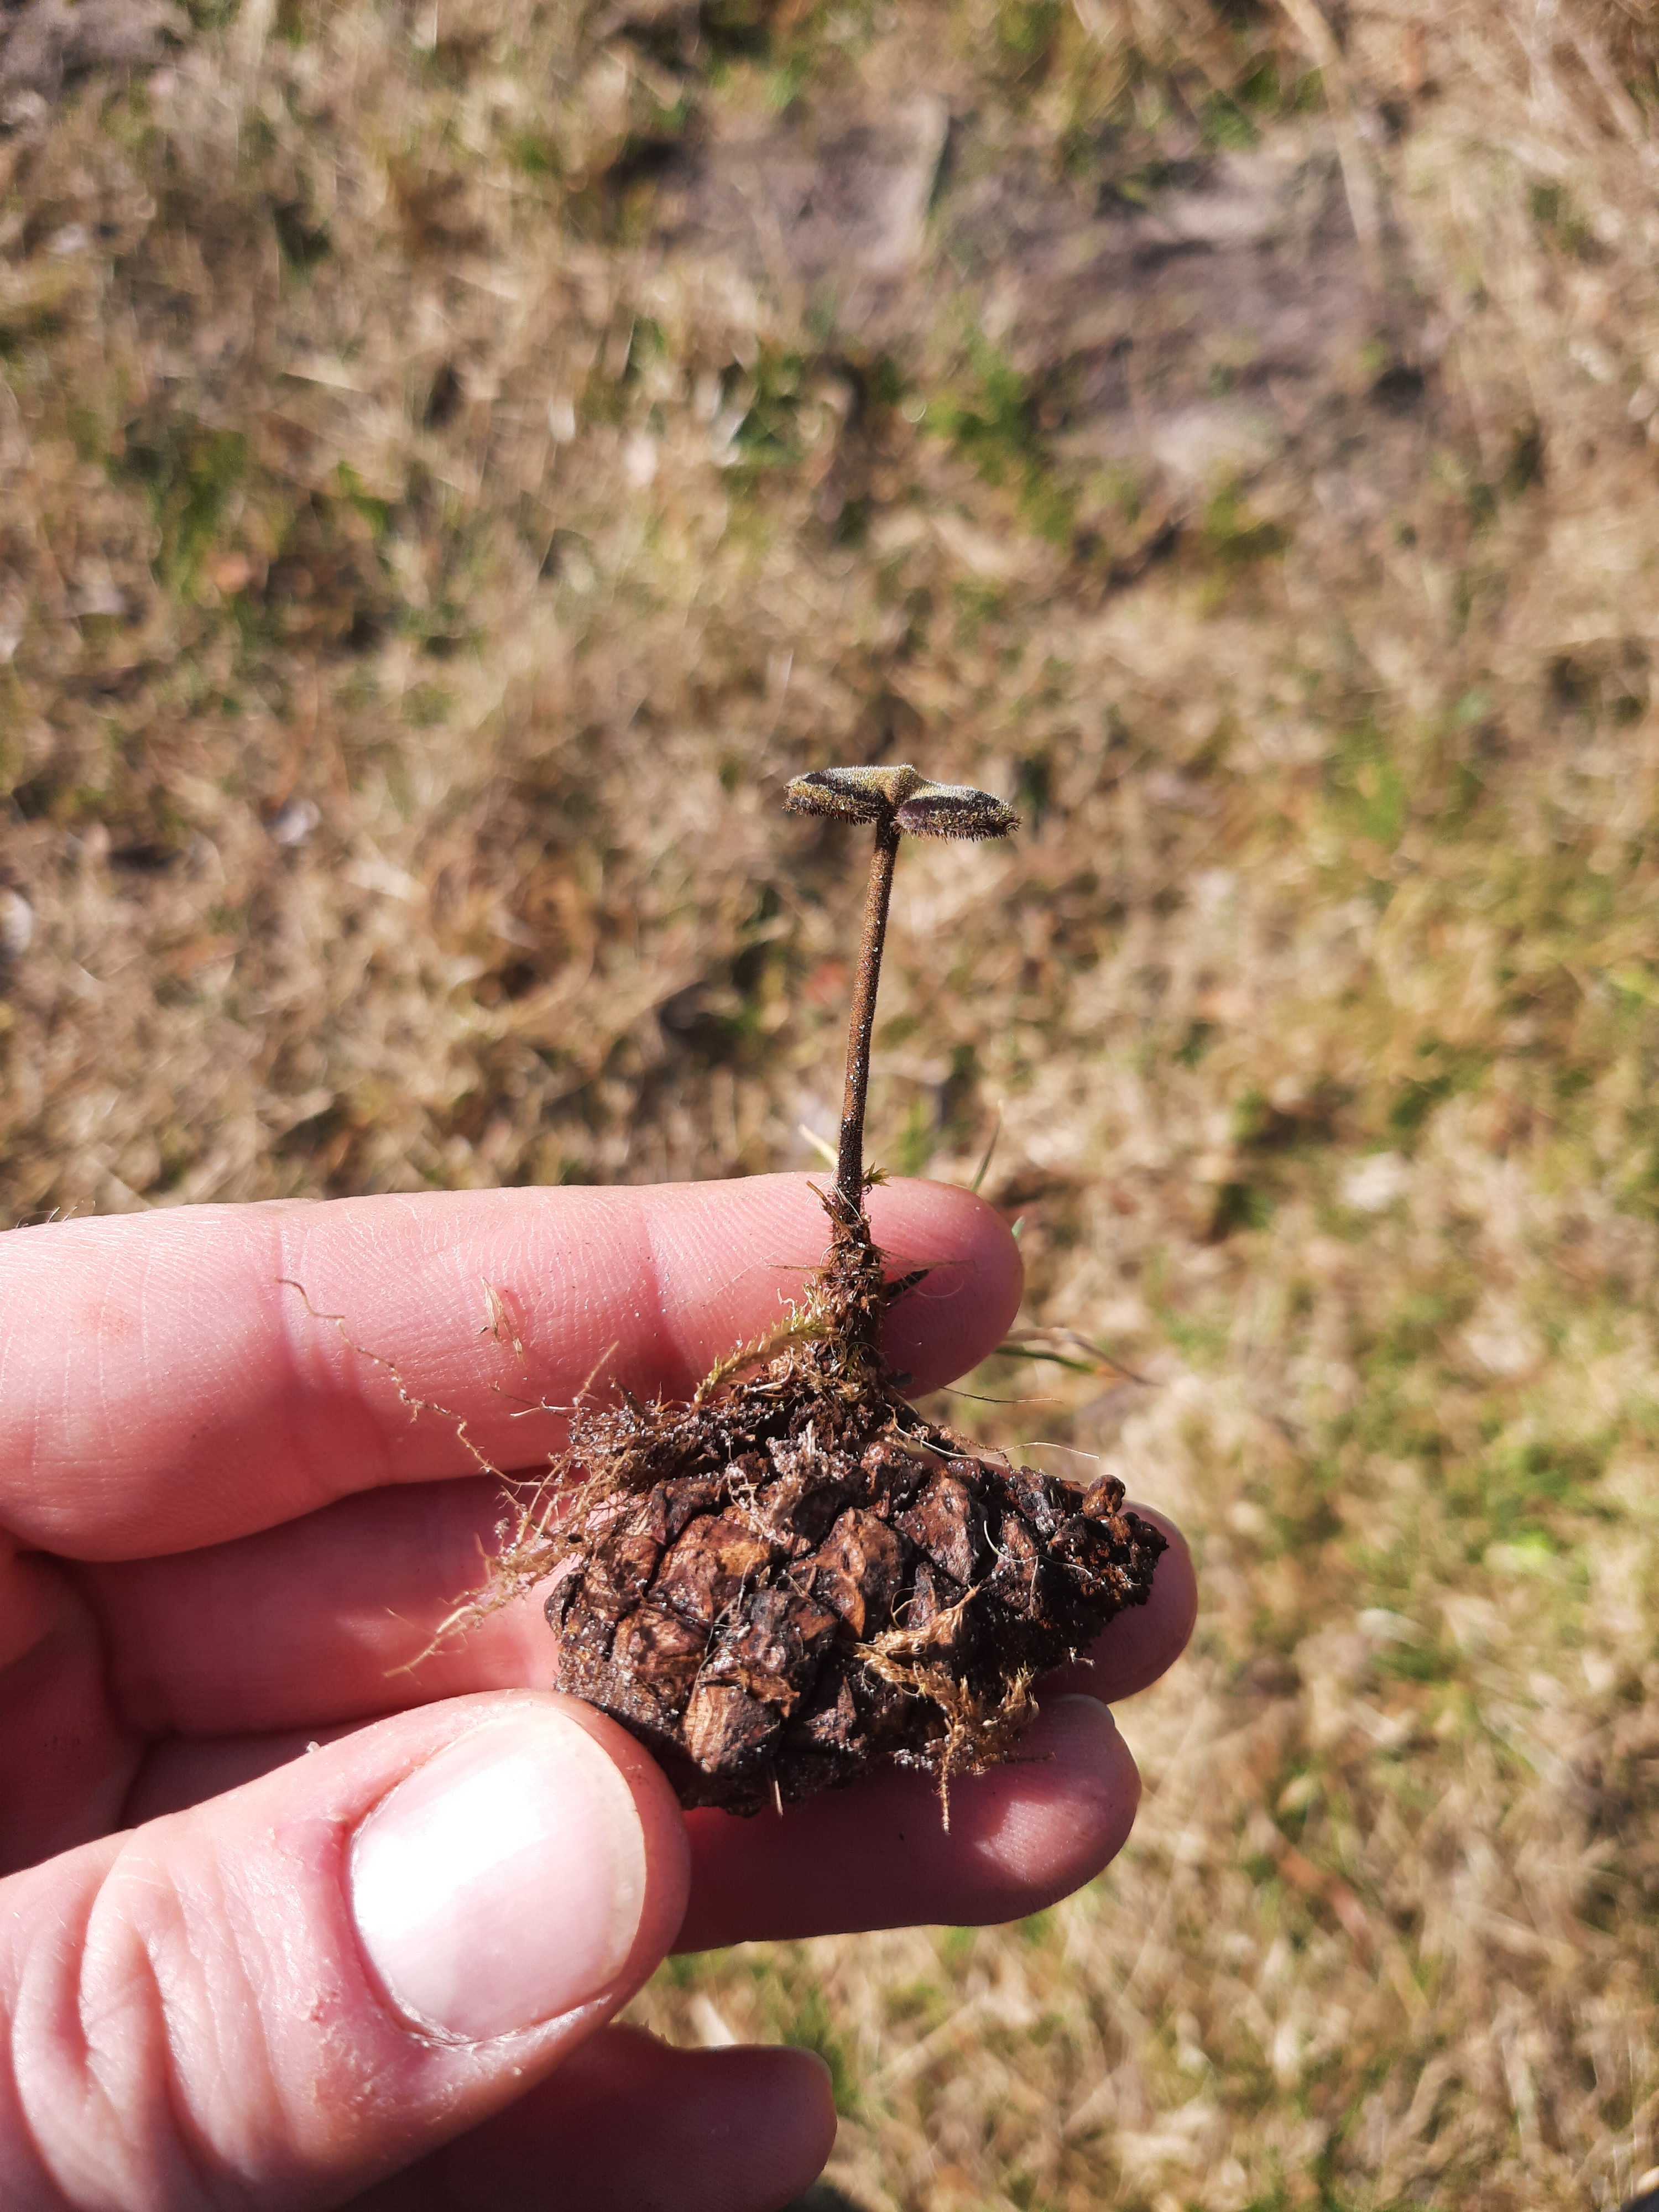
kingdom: Fungi
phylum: Basidiomycota
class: Agaricomycetes
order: Russulales
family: Auriscalpiaceae
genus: Auriscalpium
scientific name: Auriscalpium vulgare
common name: koglepigsvamp
